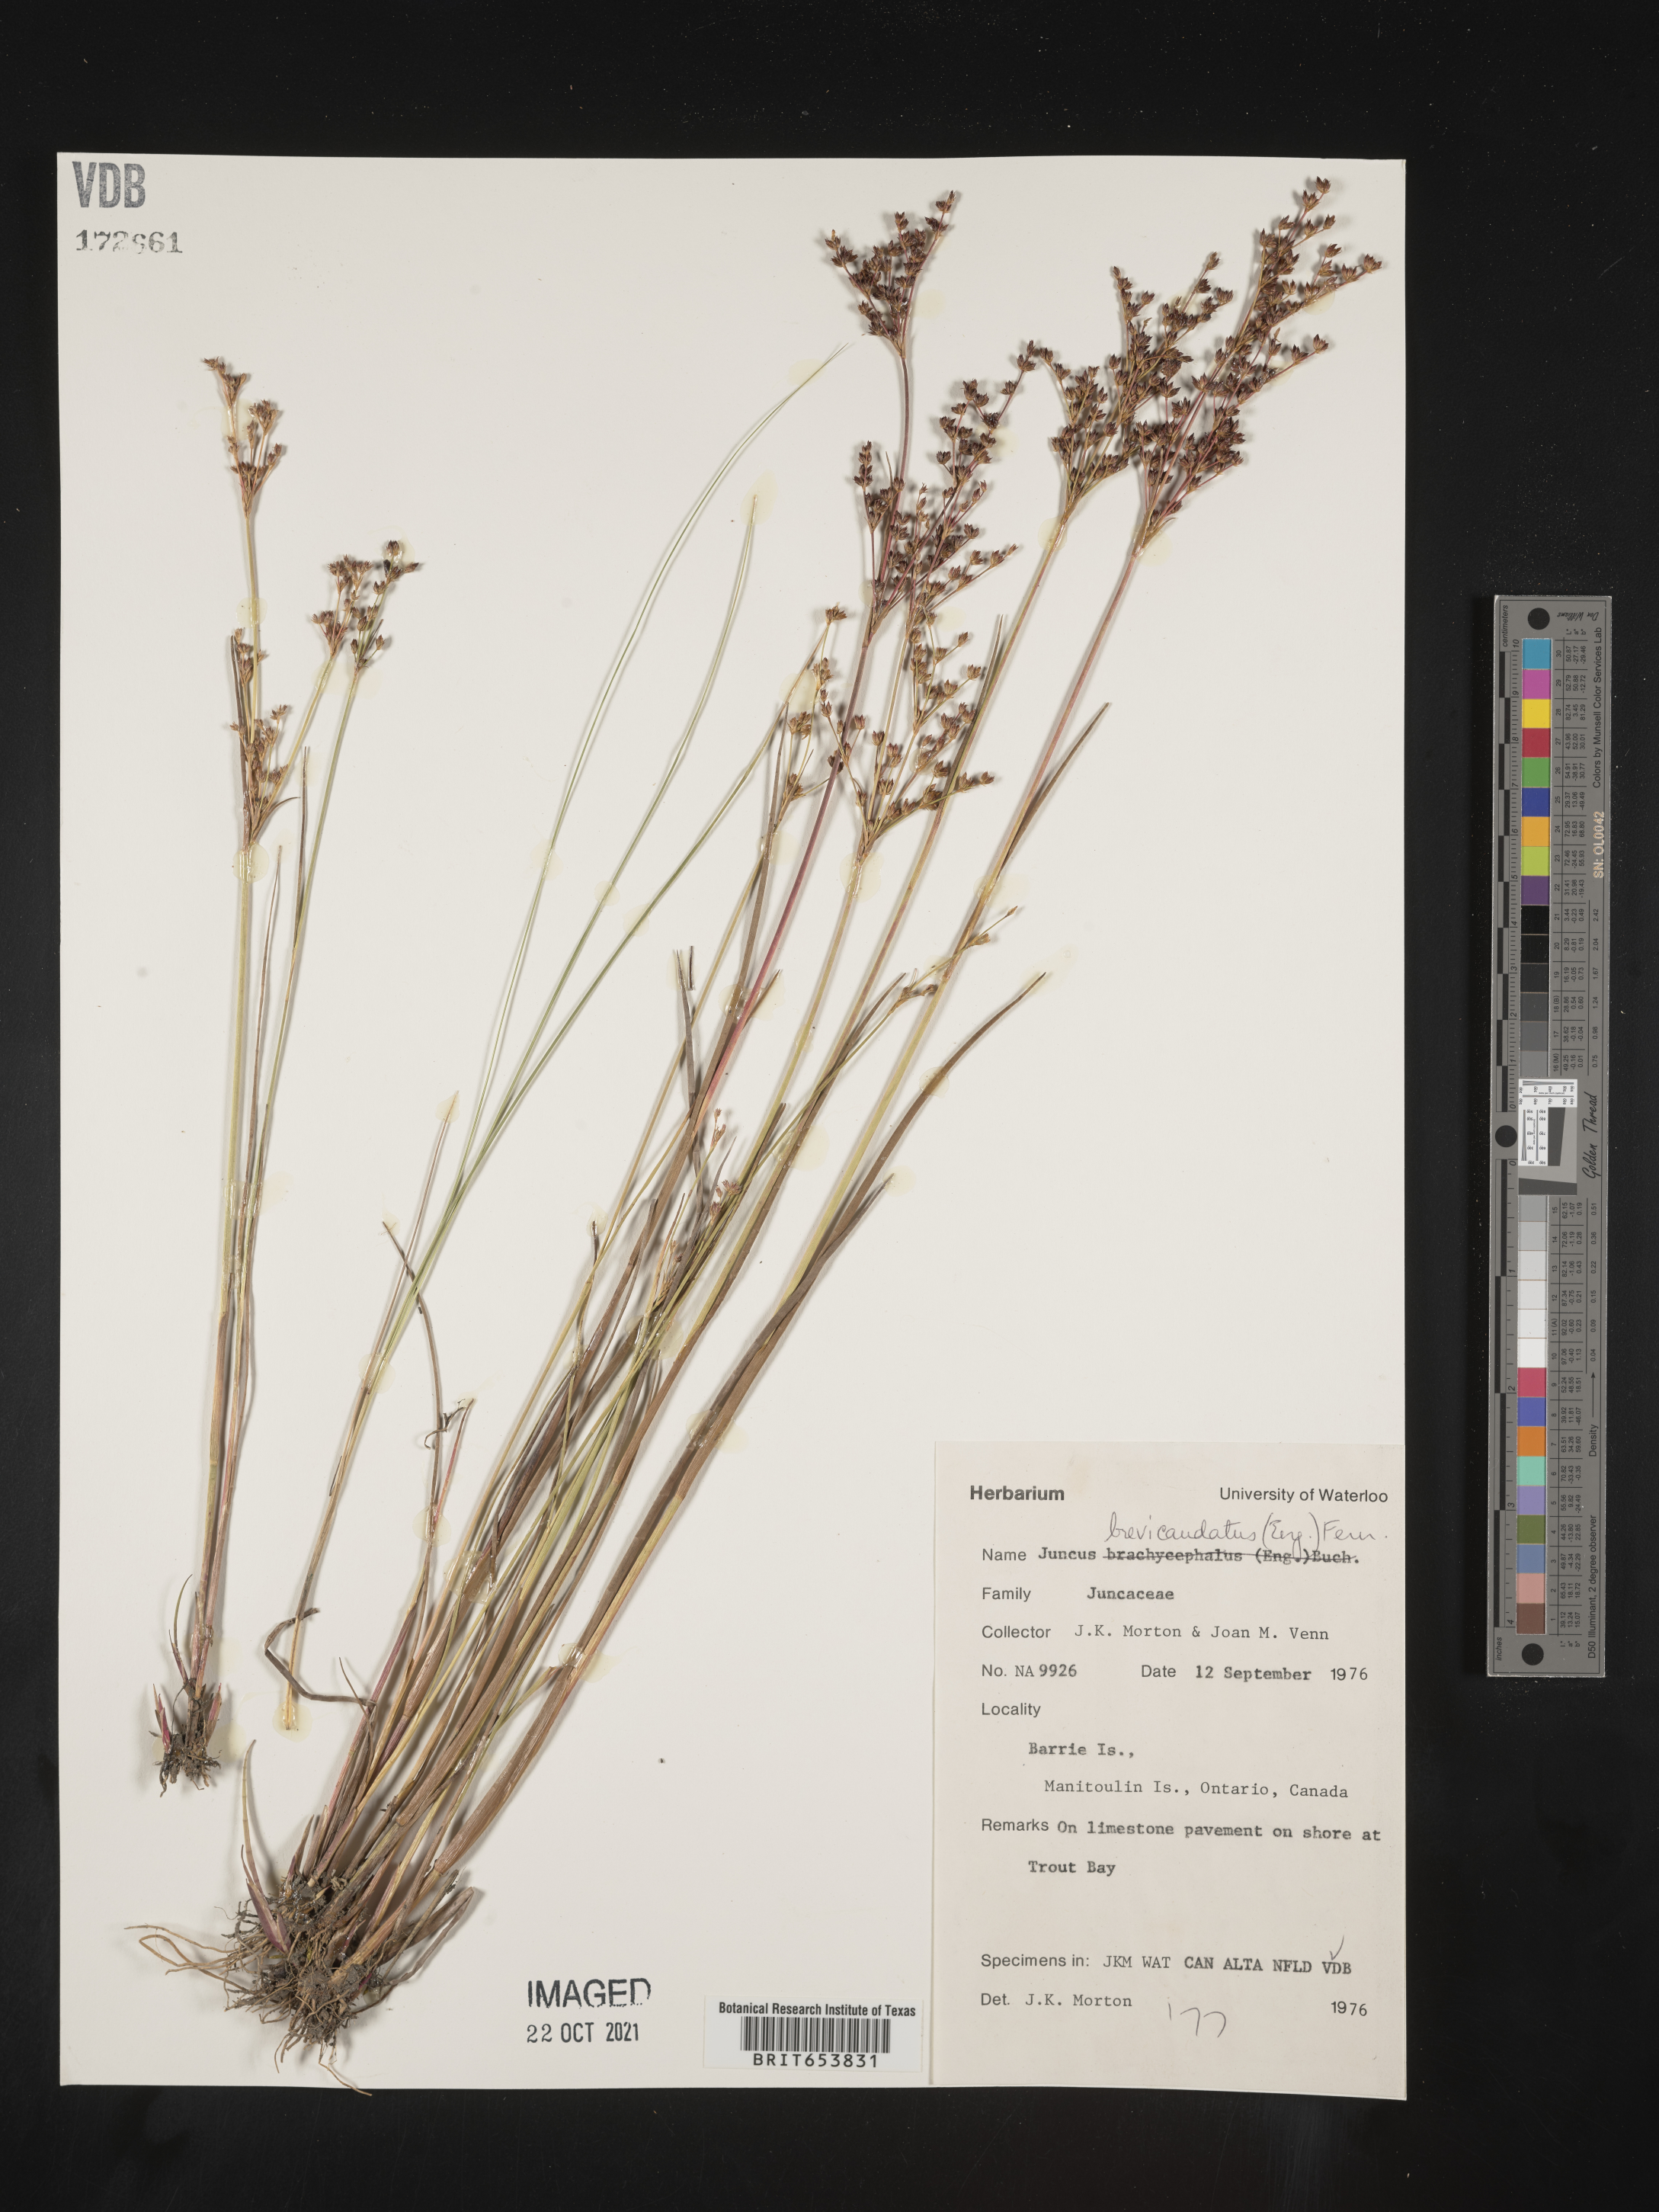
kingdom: Plantae
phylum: Tracheophyta
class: Liliopsida
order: Poales
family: Juncaceae
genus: Juncus
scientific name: Juncus brevicaudatus
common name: Narrow-panicle rush
